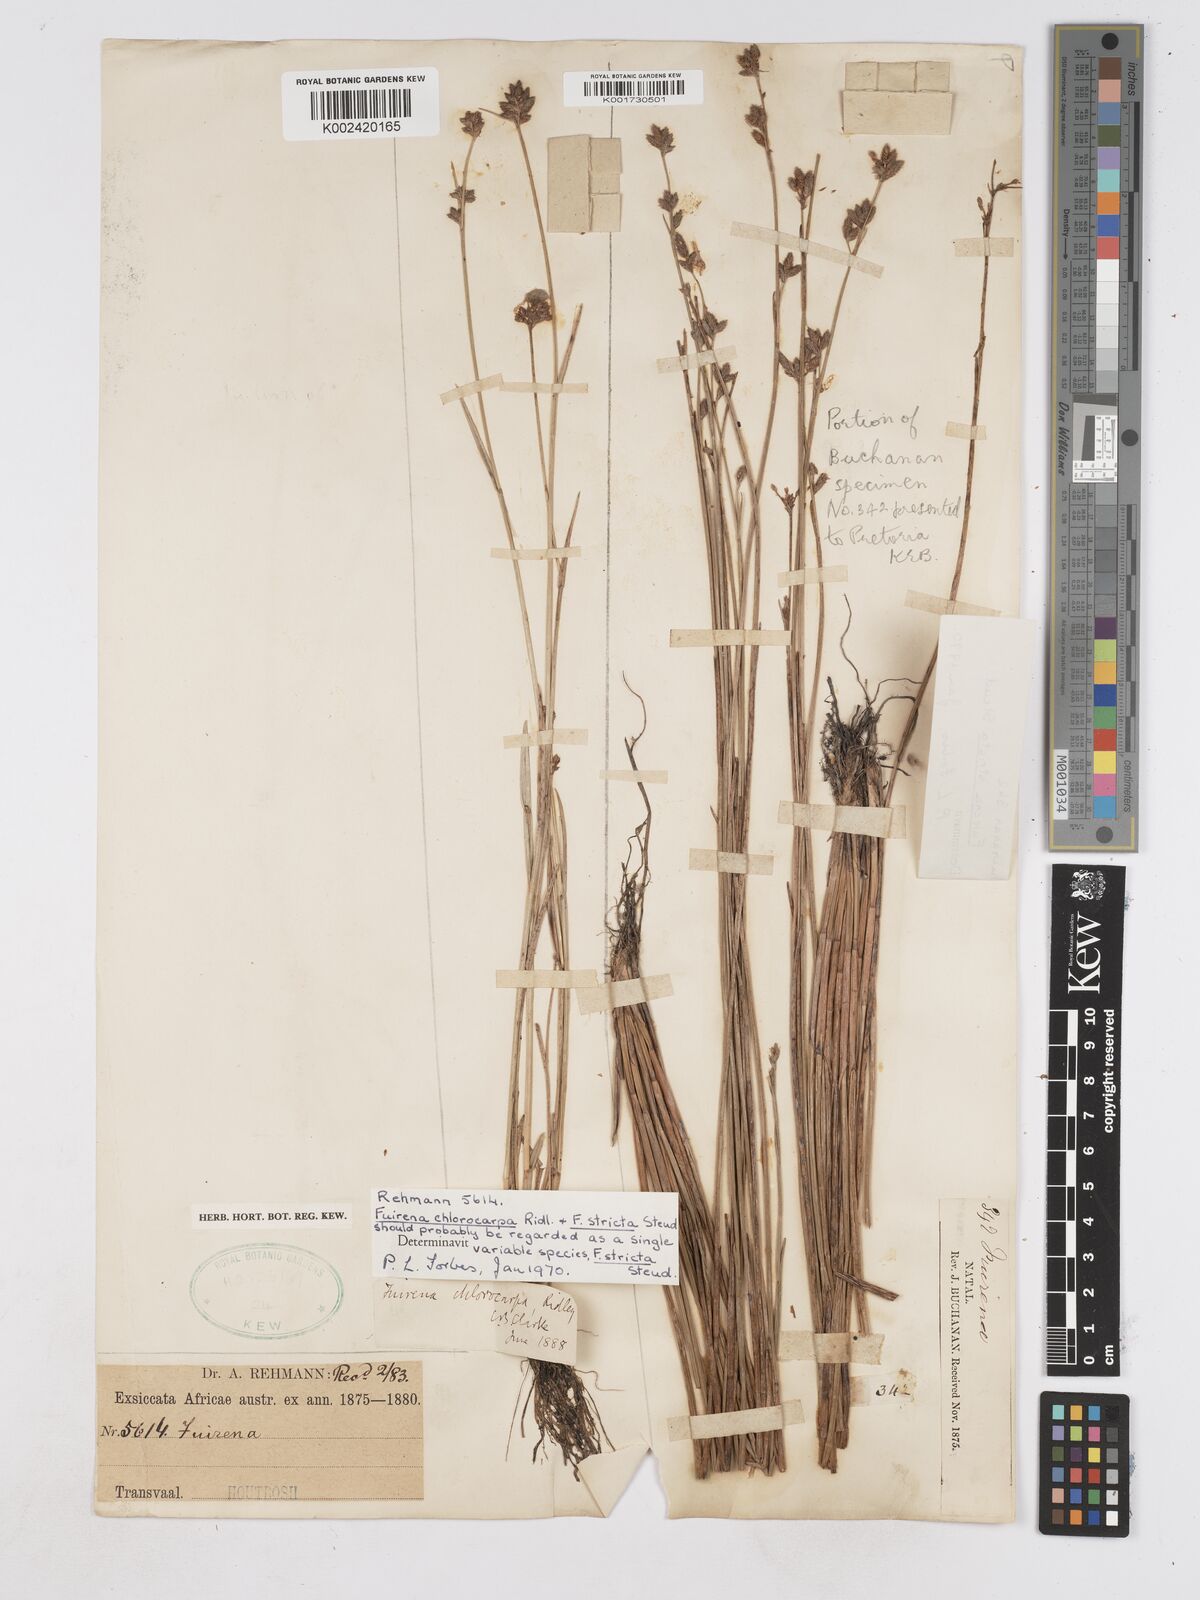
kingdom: Plantae
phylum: Tracheophyta
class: Liliopsida
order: Poales
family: Cyperaceae
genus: Fuirena
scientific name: Fuirena stricta
